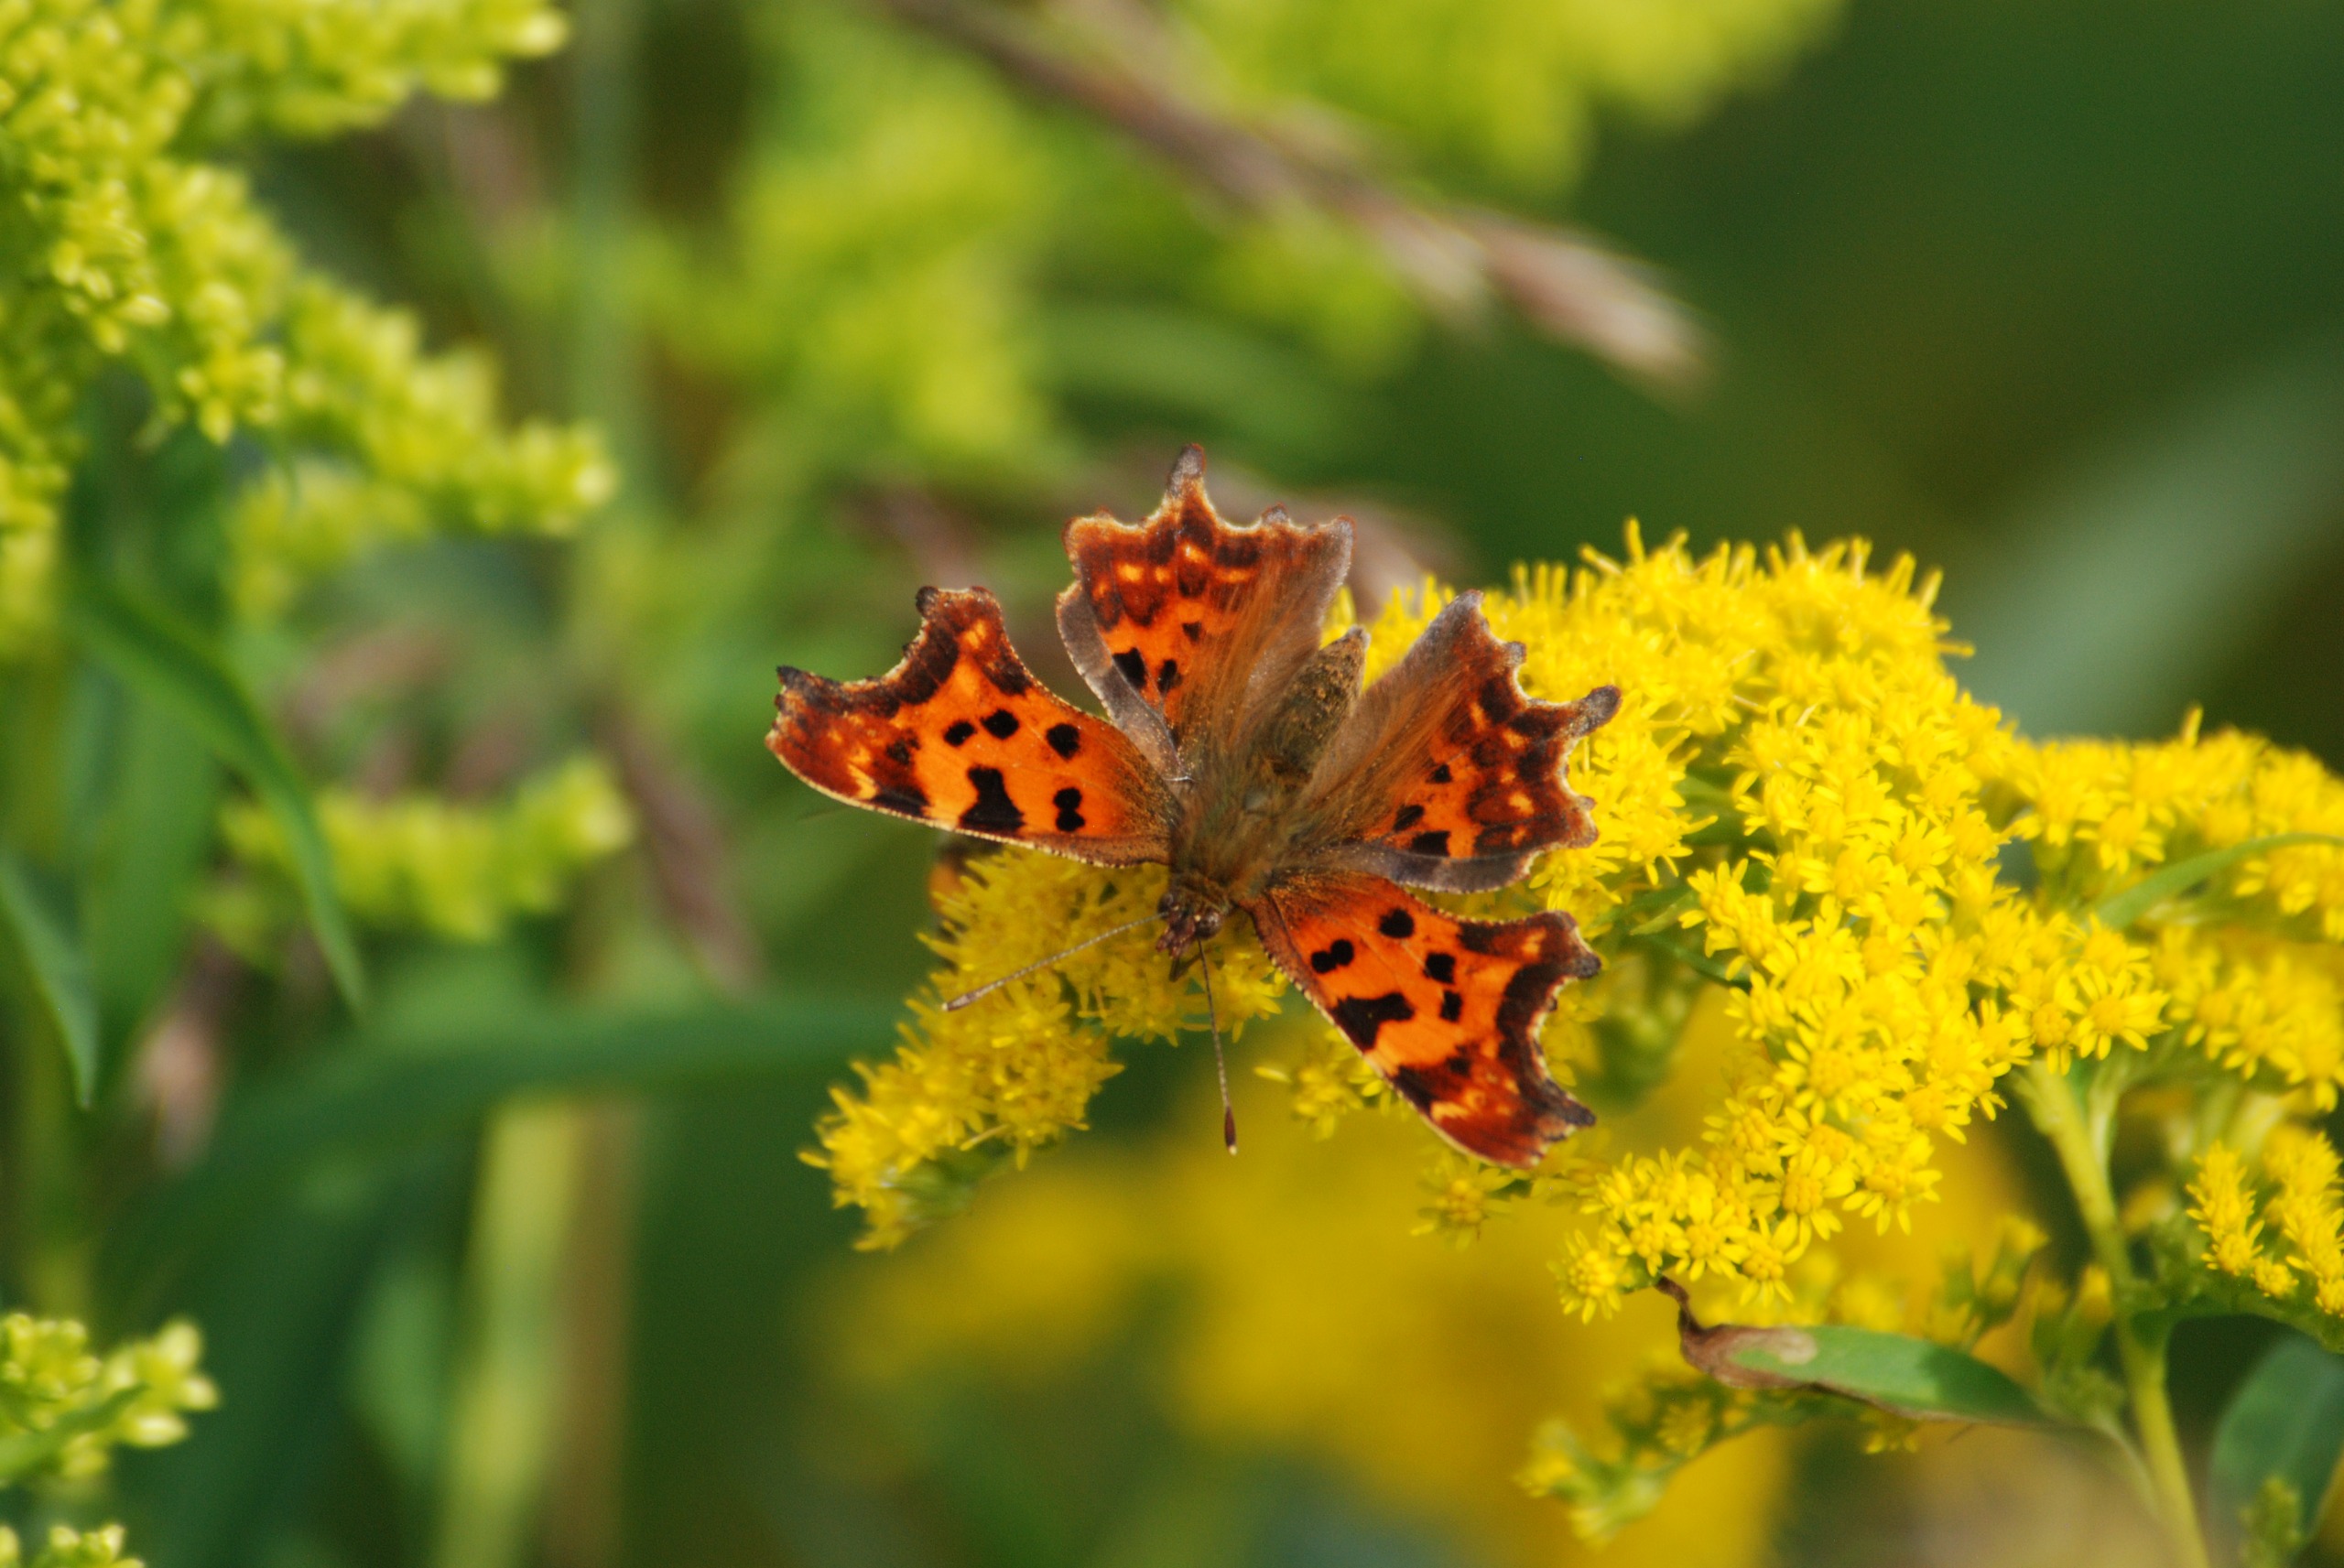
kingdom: Animalia
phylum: Arthropoda
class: Insecta
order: Lepidoptera
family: Nymphalidae
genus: Polygonia
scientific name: Polygonia c-album
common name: Det hvide C
